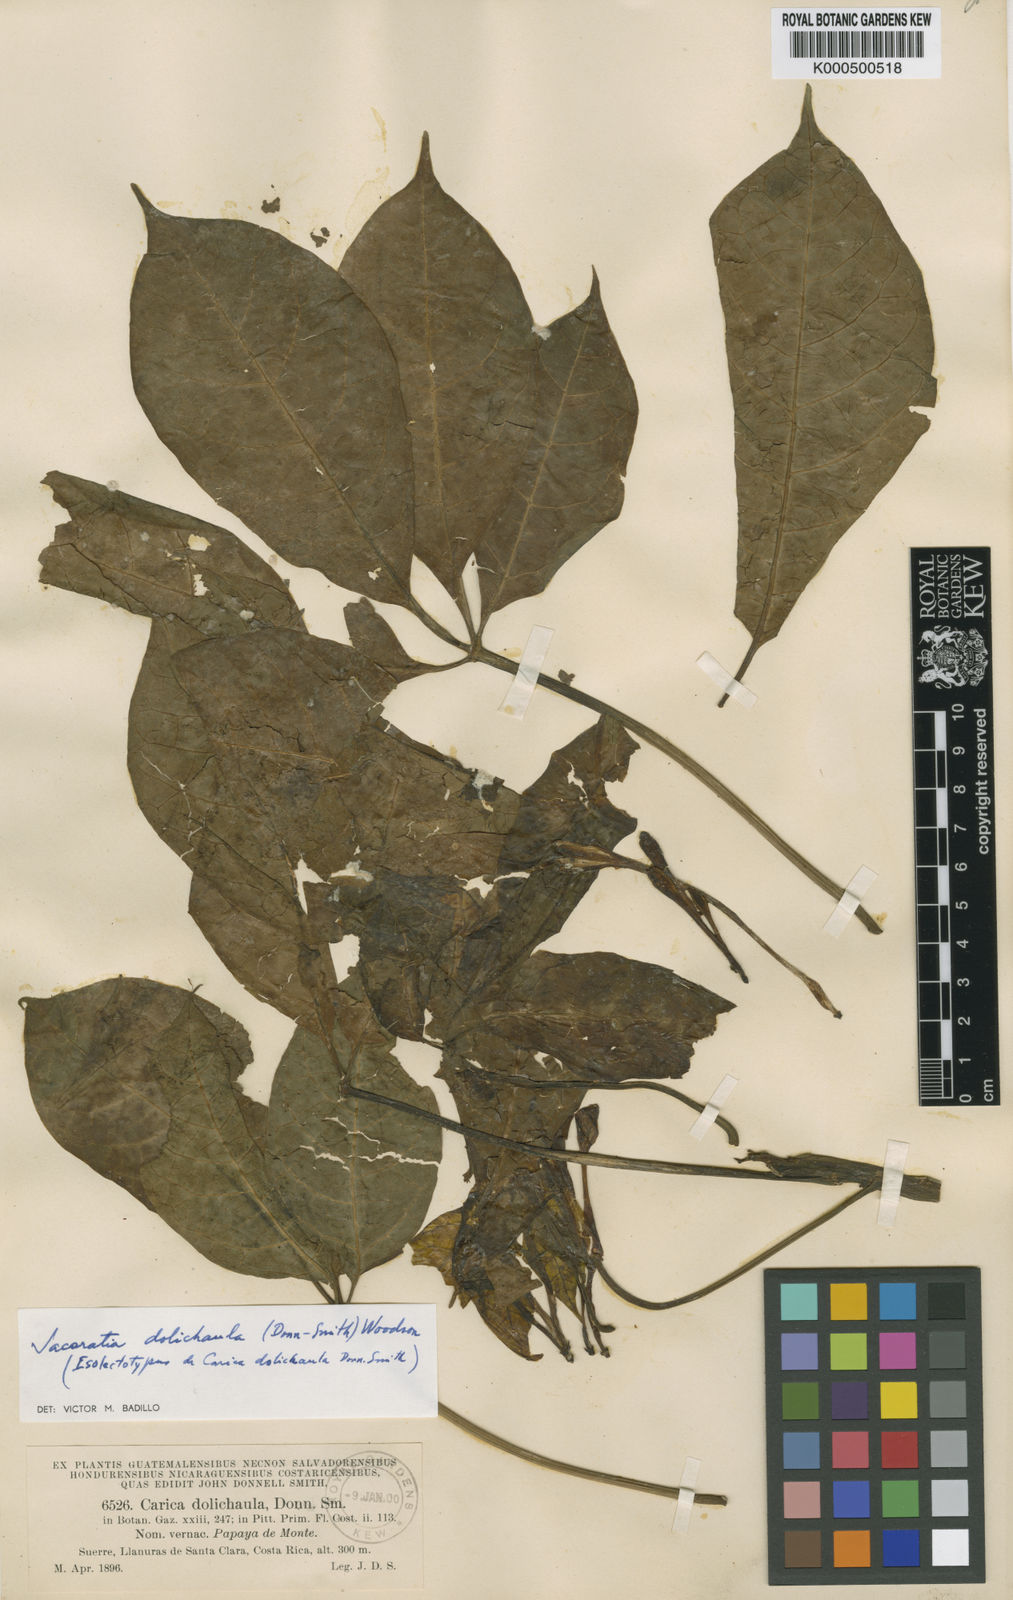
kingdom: Plantae
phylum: Tracheophyta
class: Magnoliopsida
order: Brassicales
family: Caricaceae
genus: Jacaratia
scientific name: Jacaratia dolichaula
